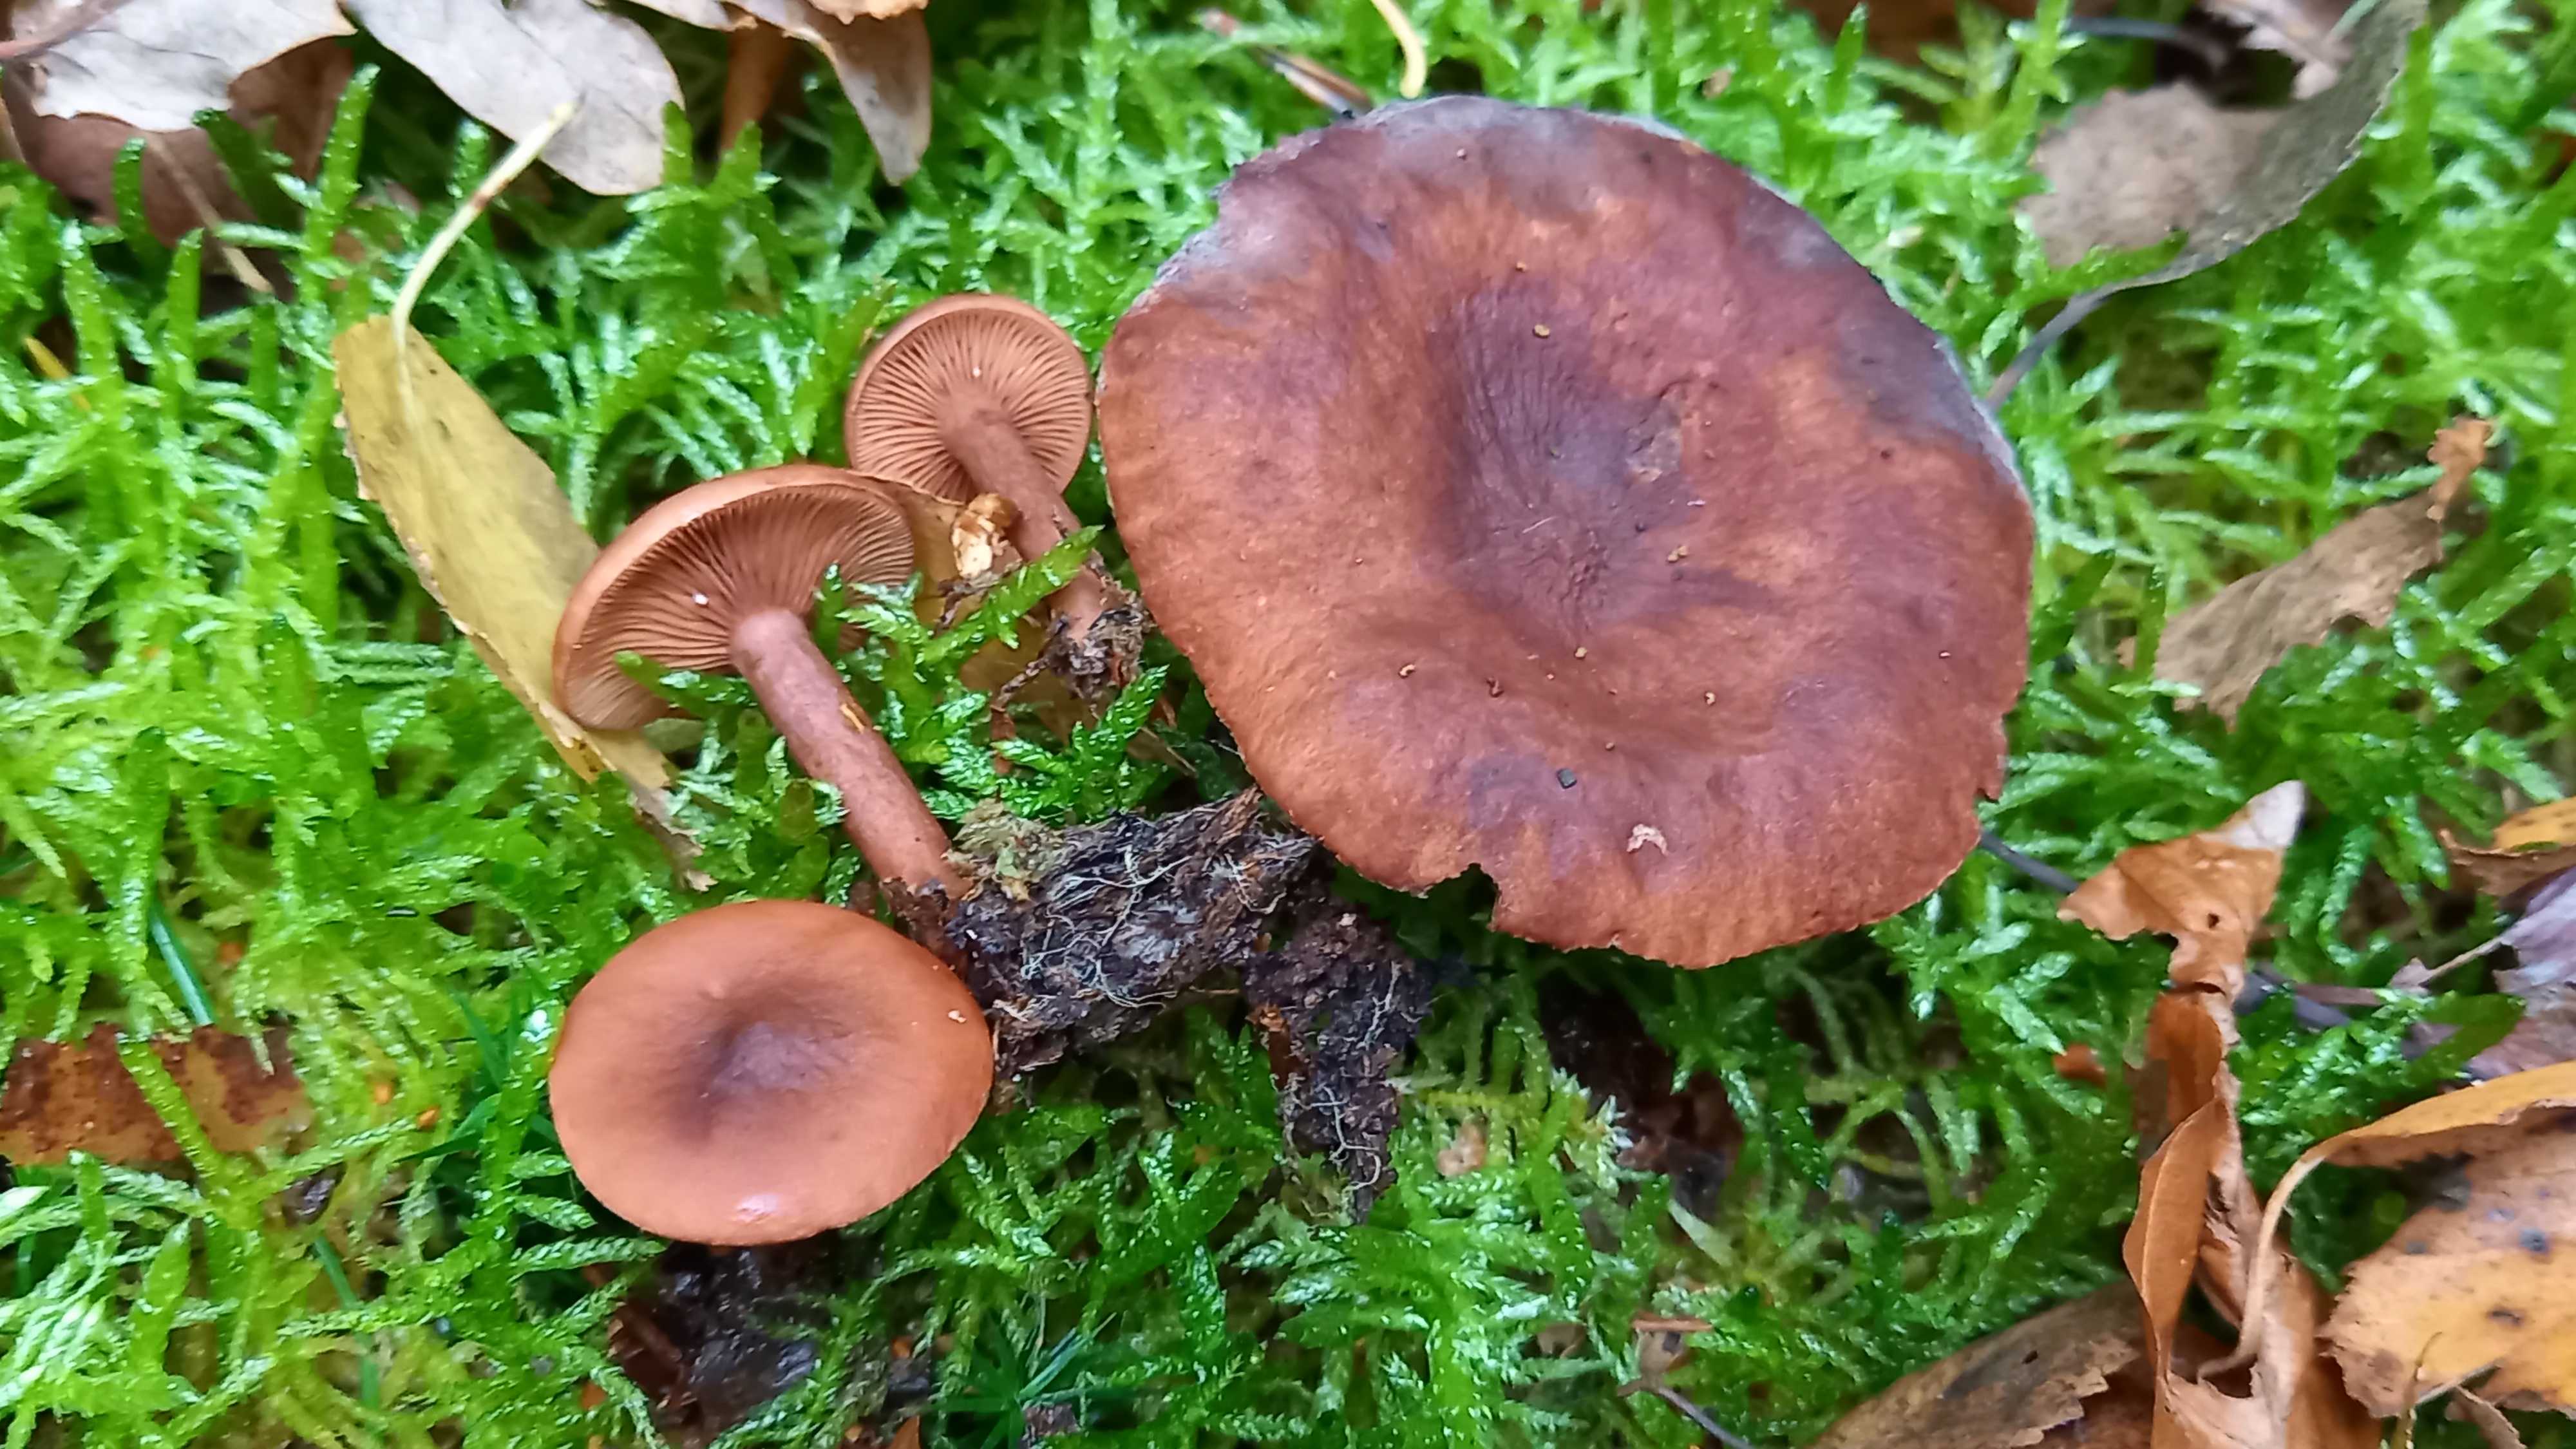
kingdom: Fungi
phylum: Basidiomycota
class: Agaricomycetes
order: Russulales
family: Russulaceae
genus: Lactarius
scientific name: Lactarius camphoratus
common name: kamfer-mælkehat
